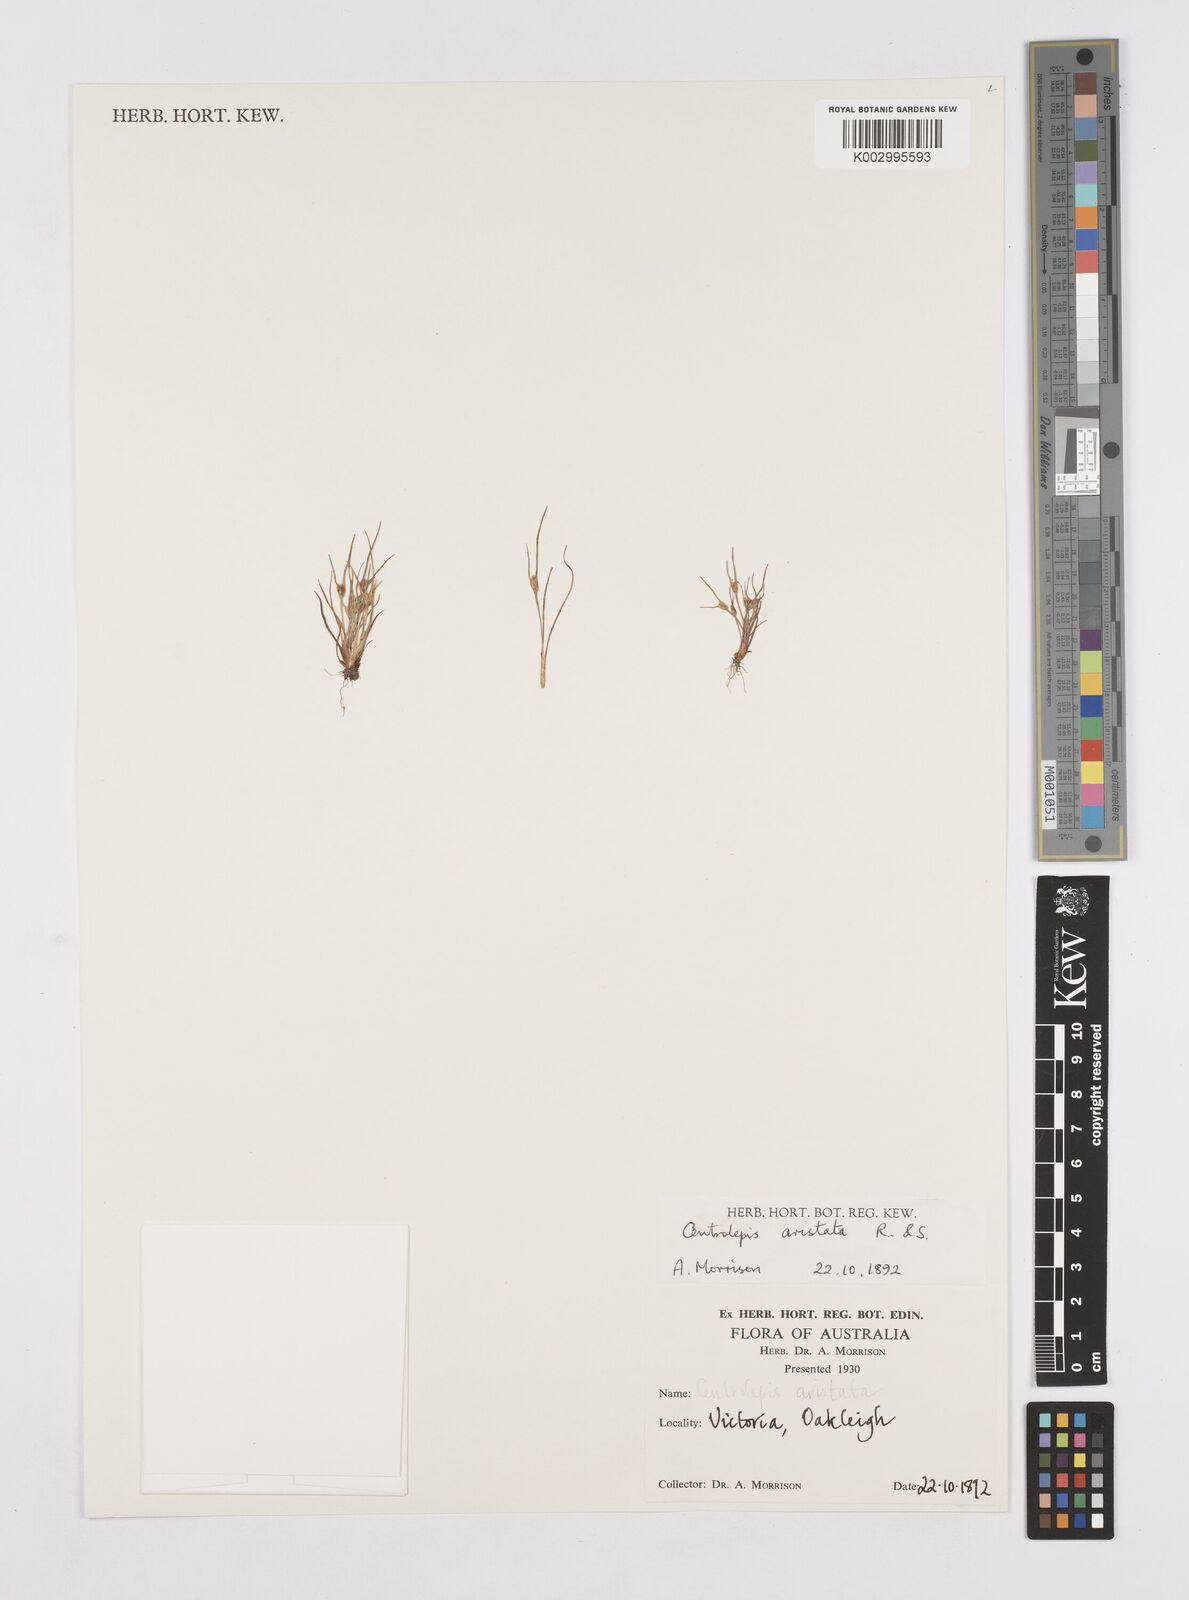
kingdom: Plantae
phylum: Tracheophyta
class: Liliopsida
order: Poales
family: Restionaceae
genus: Centrolepis
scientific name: Centrolepis aristata
